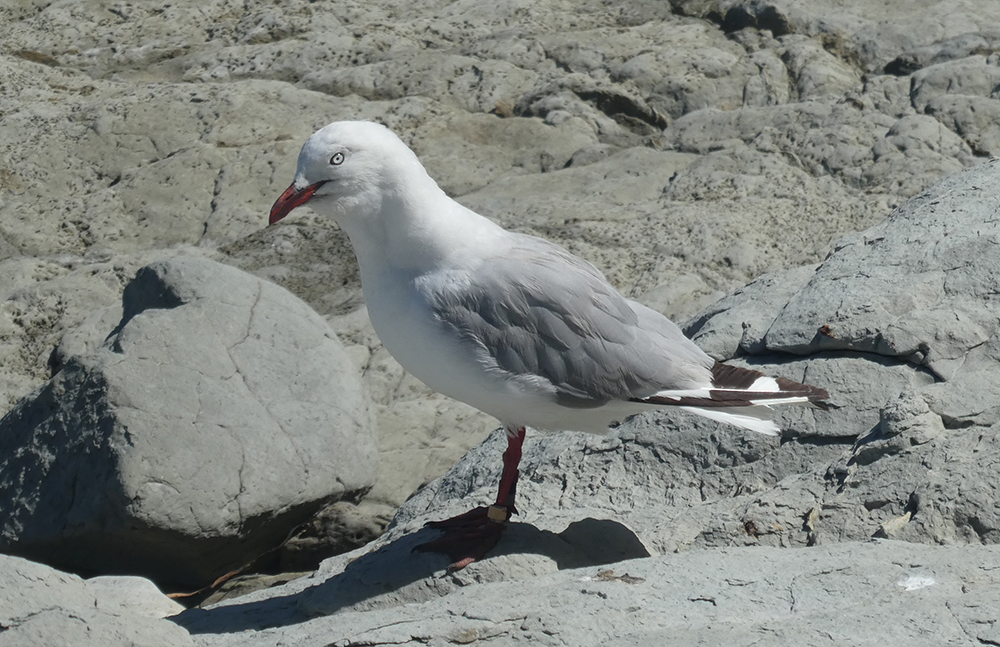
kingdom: Animalia
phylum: Chordata
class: Aves
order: Charadriiformes
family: Laridae
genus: Chroicocephalus
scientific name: Chroicocephalus novaehollandiae
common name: Silver gull
